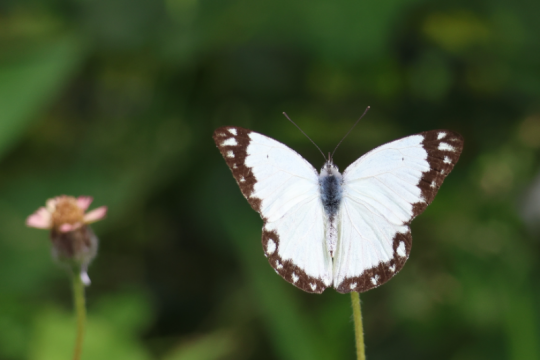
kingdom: Animalia
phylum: Arthropoda
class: Insecta
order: Lepidoptera
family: Pieridae
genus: Belenois
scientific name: Belenois creona
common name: African Caper
